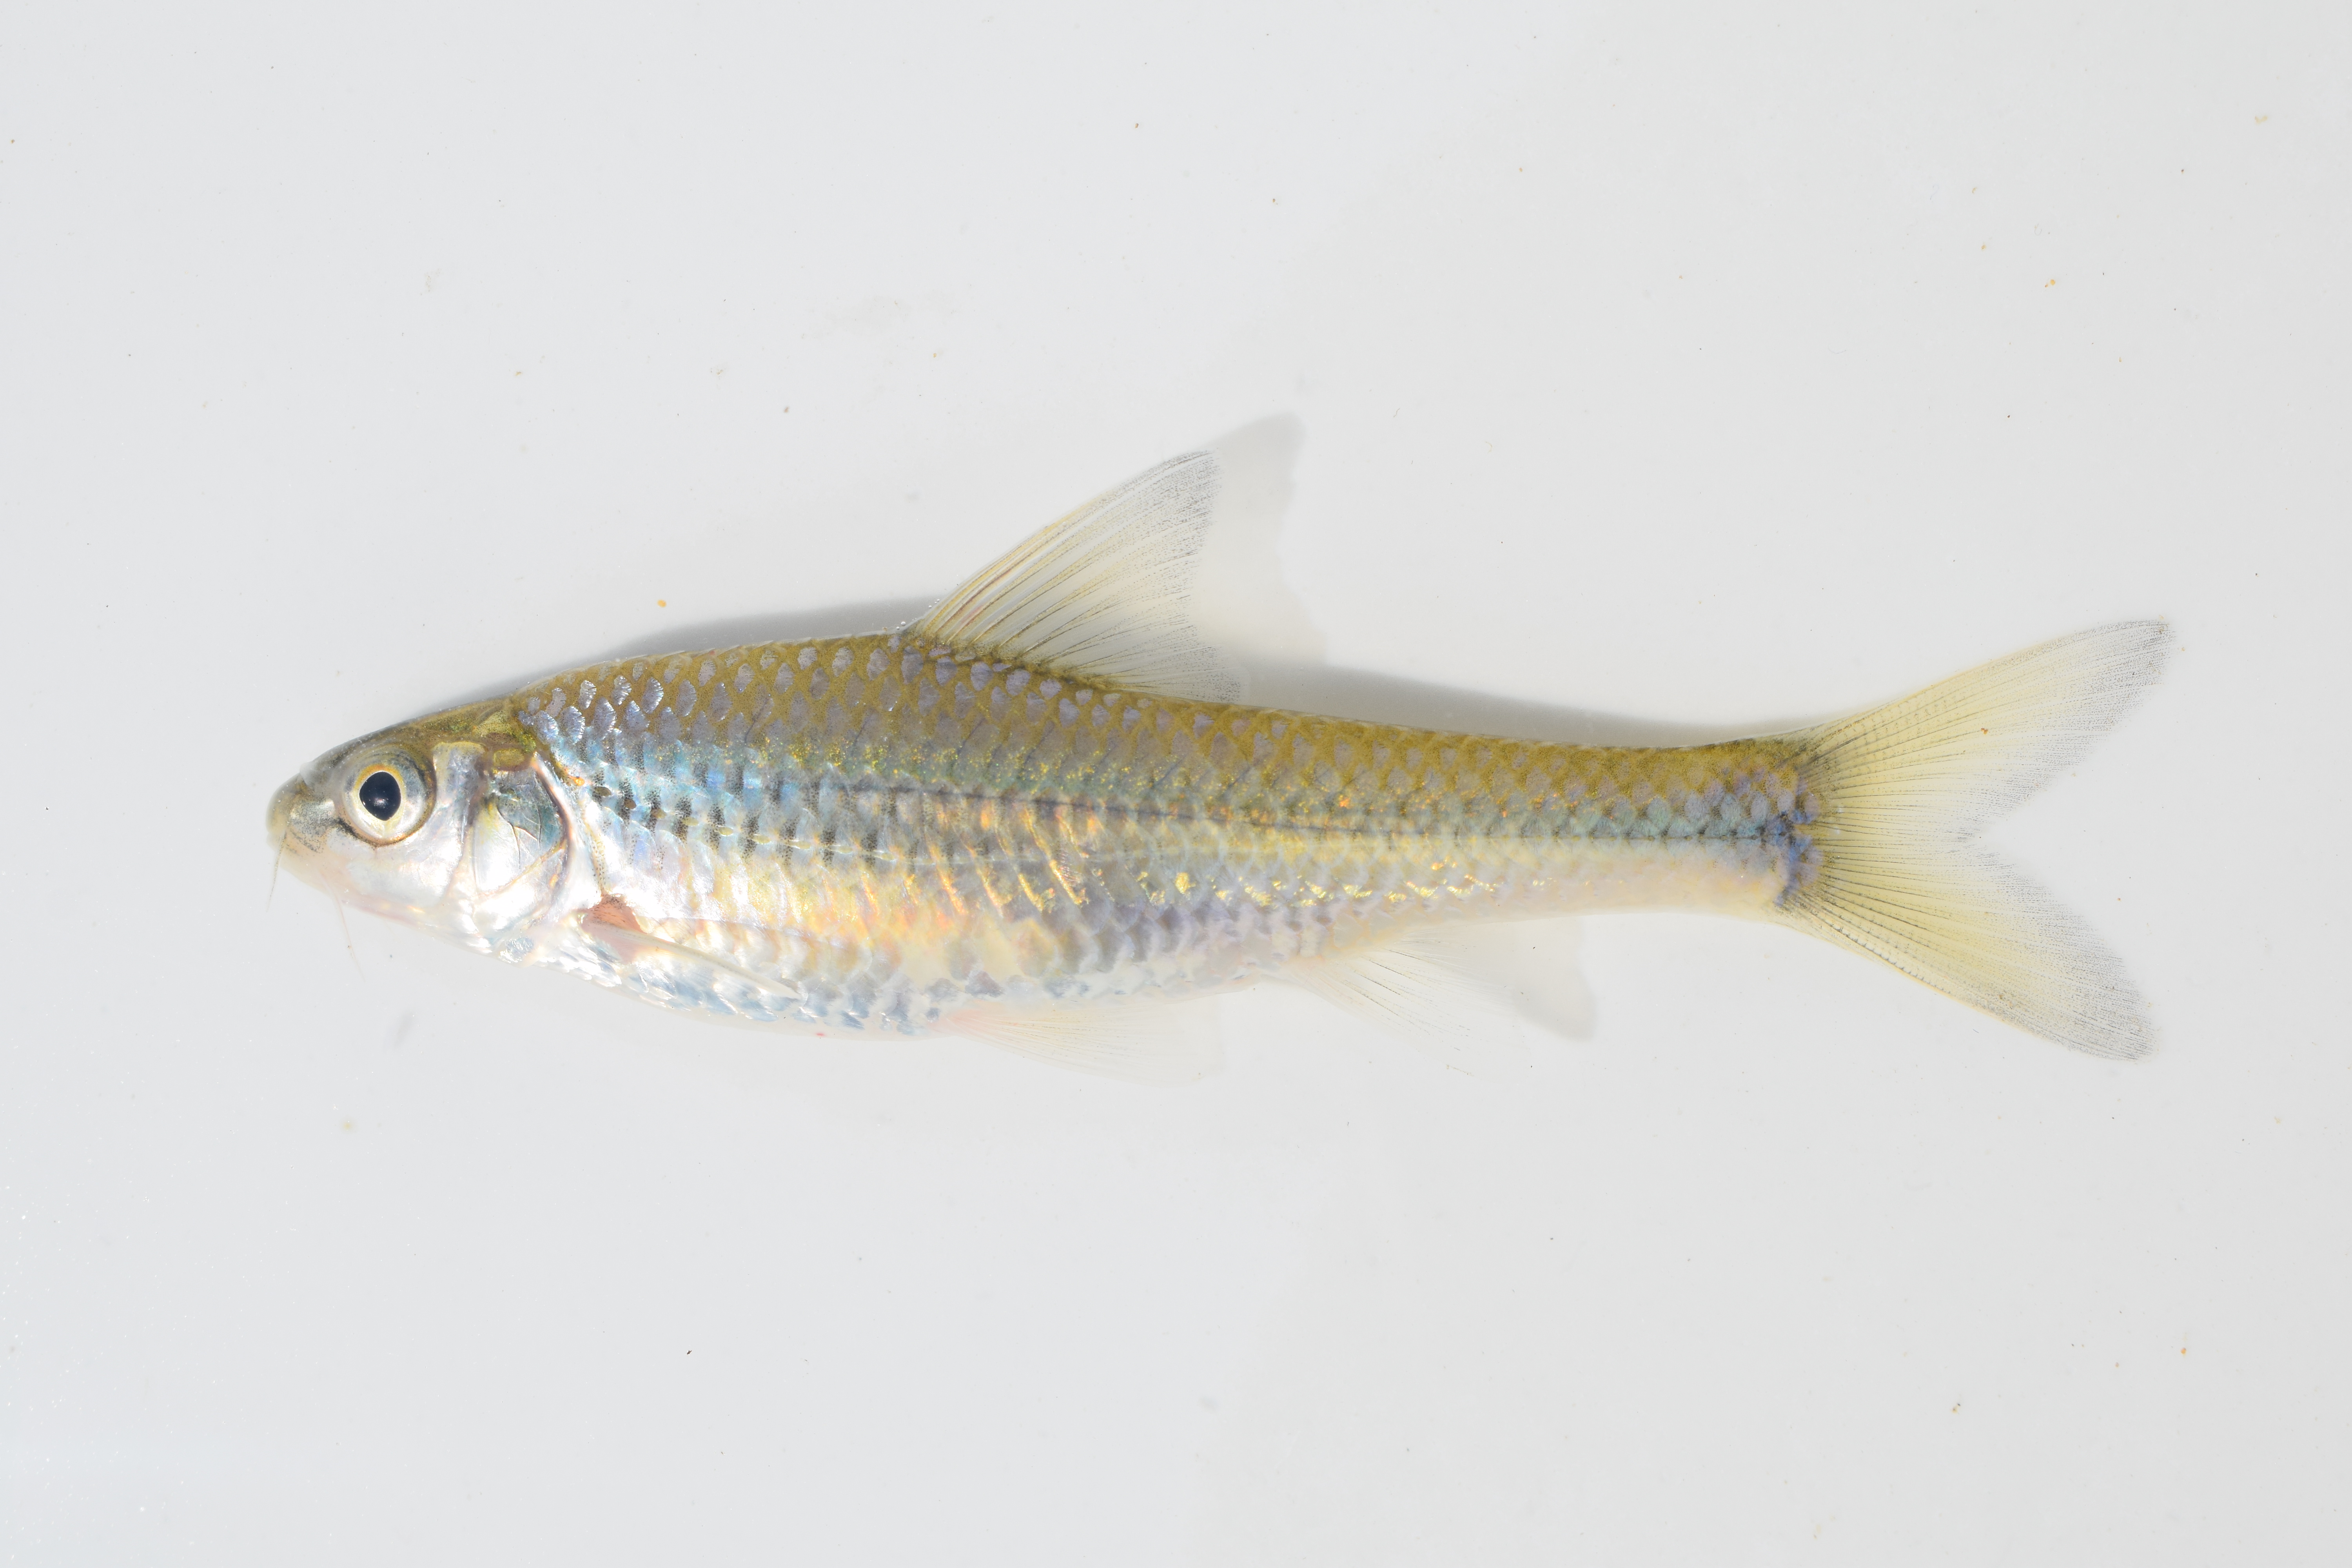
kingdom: Animalia
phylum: Chordata
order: Cypriniformes
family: Cyprinidae
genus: Enteromius
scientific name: Enteromius unitaeniatus
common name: Longbeard barb
